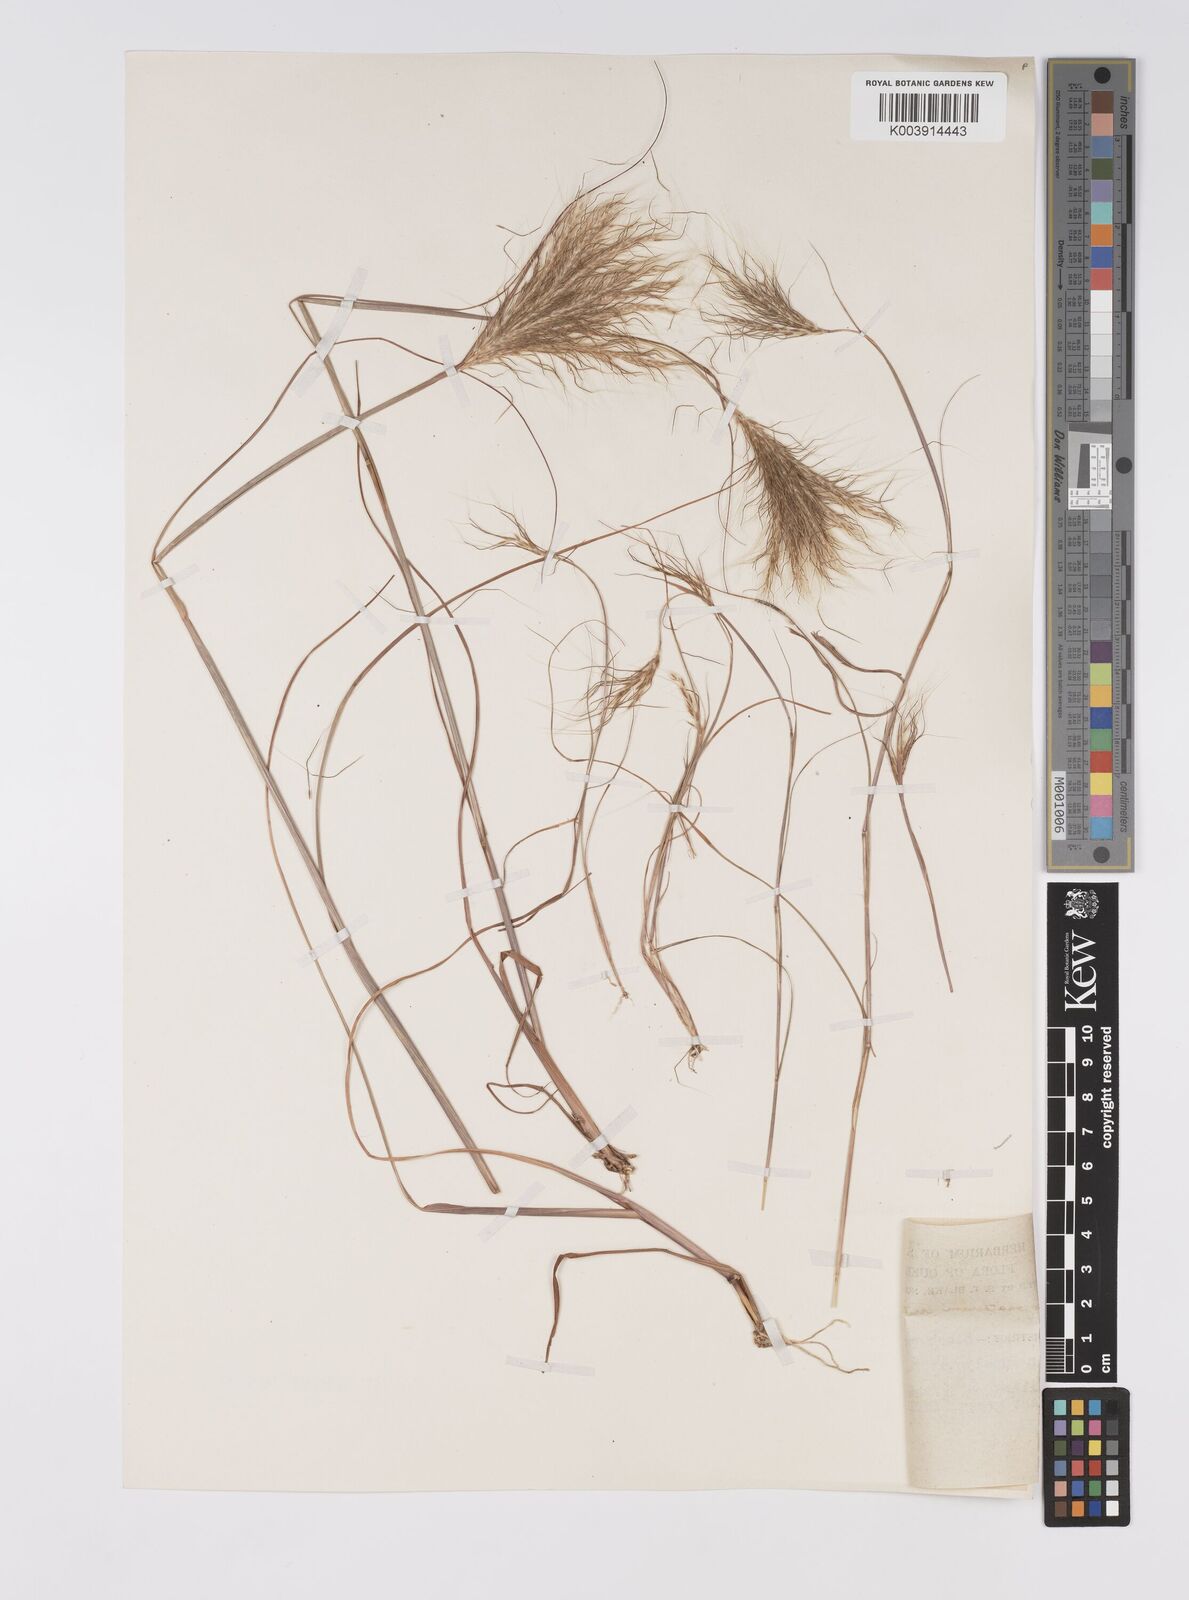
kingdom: Plantae
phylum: Tracheophyta
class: Liliopsida
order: Poales
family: Poaceae
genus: Pseudopogonatherum
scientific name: Pseudopogonatherum irritans
